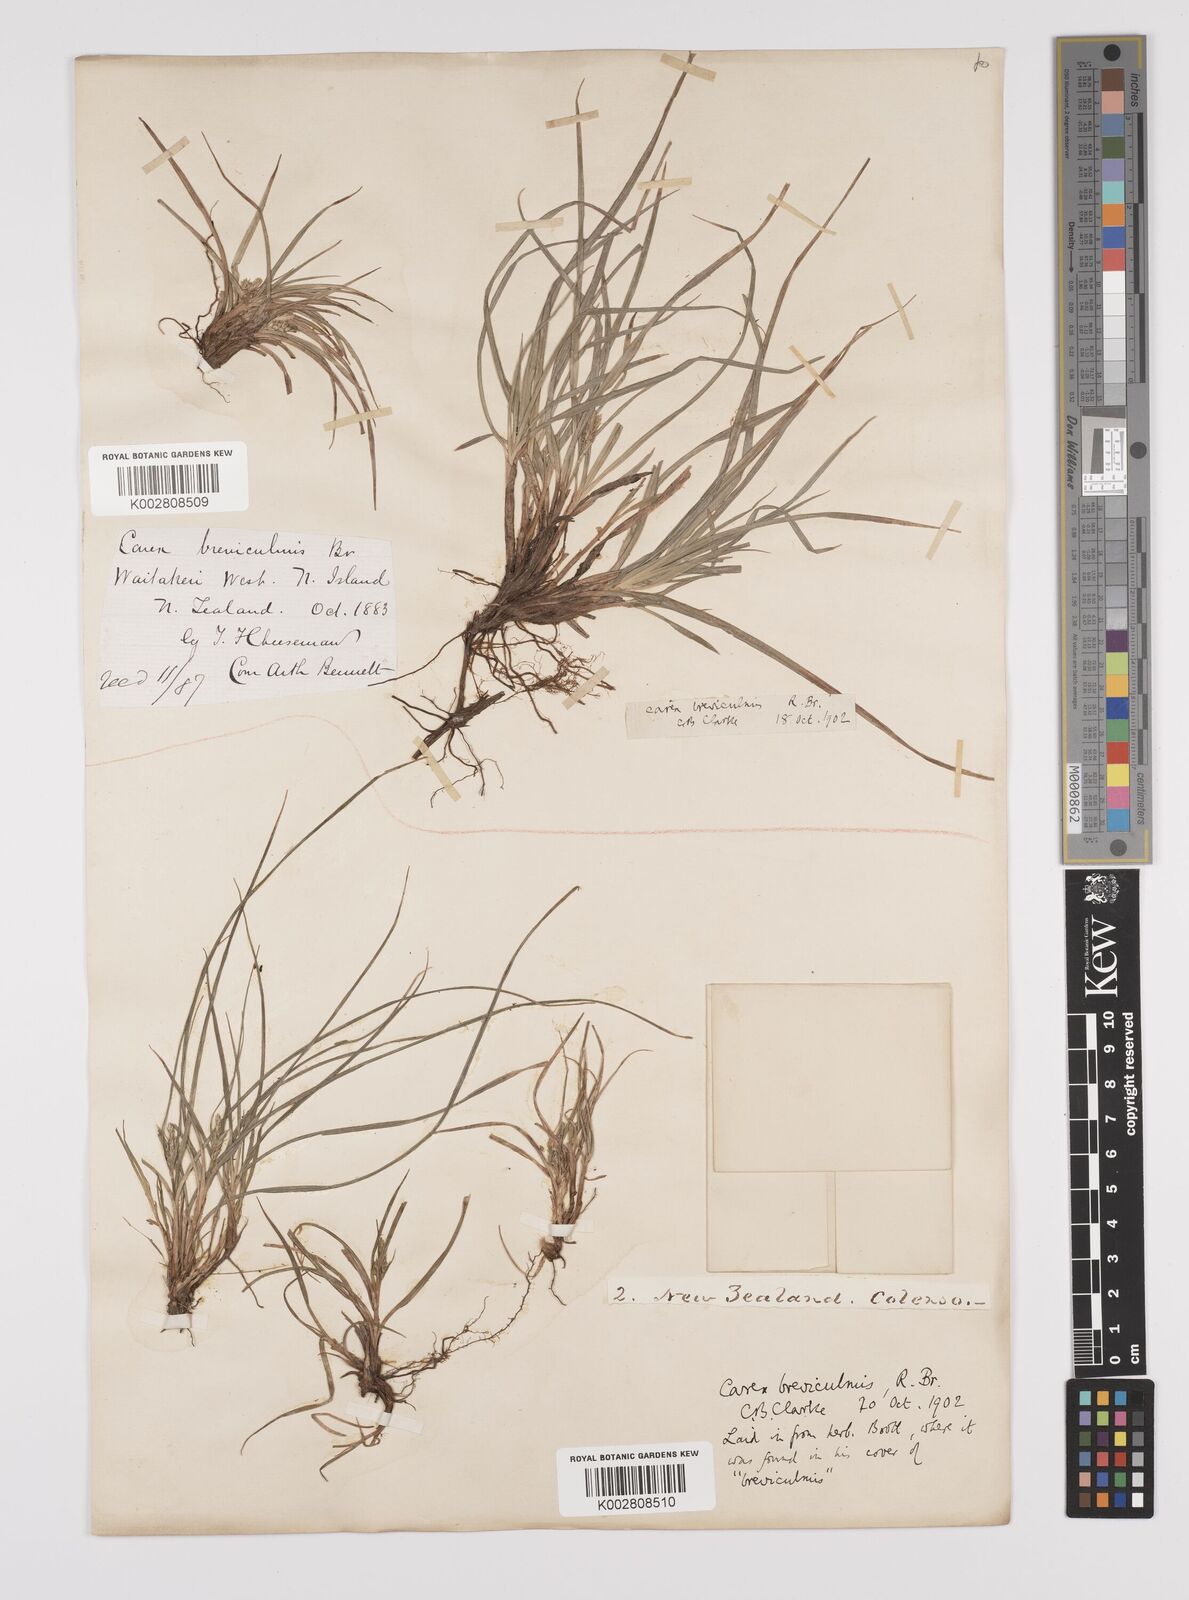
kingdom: Plantae
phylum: Tracheophyta
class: Liliopsida
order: Poales
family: Cyperaceae
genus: Carex
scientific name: Carex breviculmis
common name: Asian shortstem sedge
